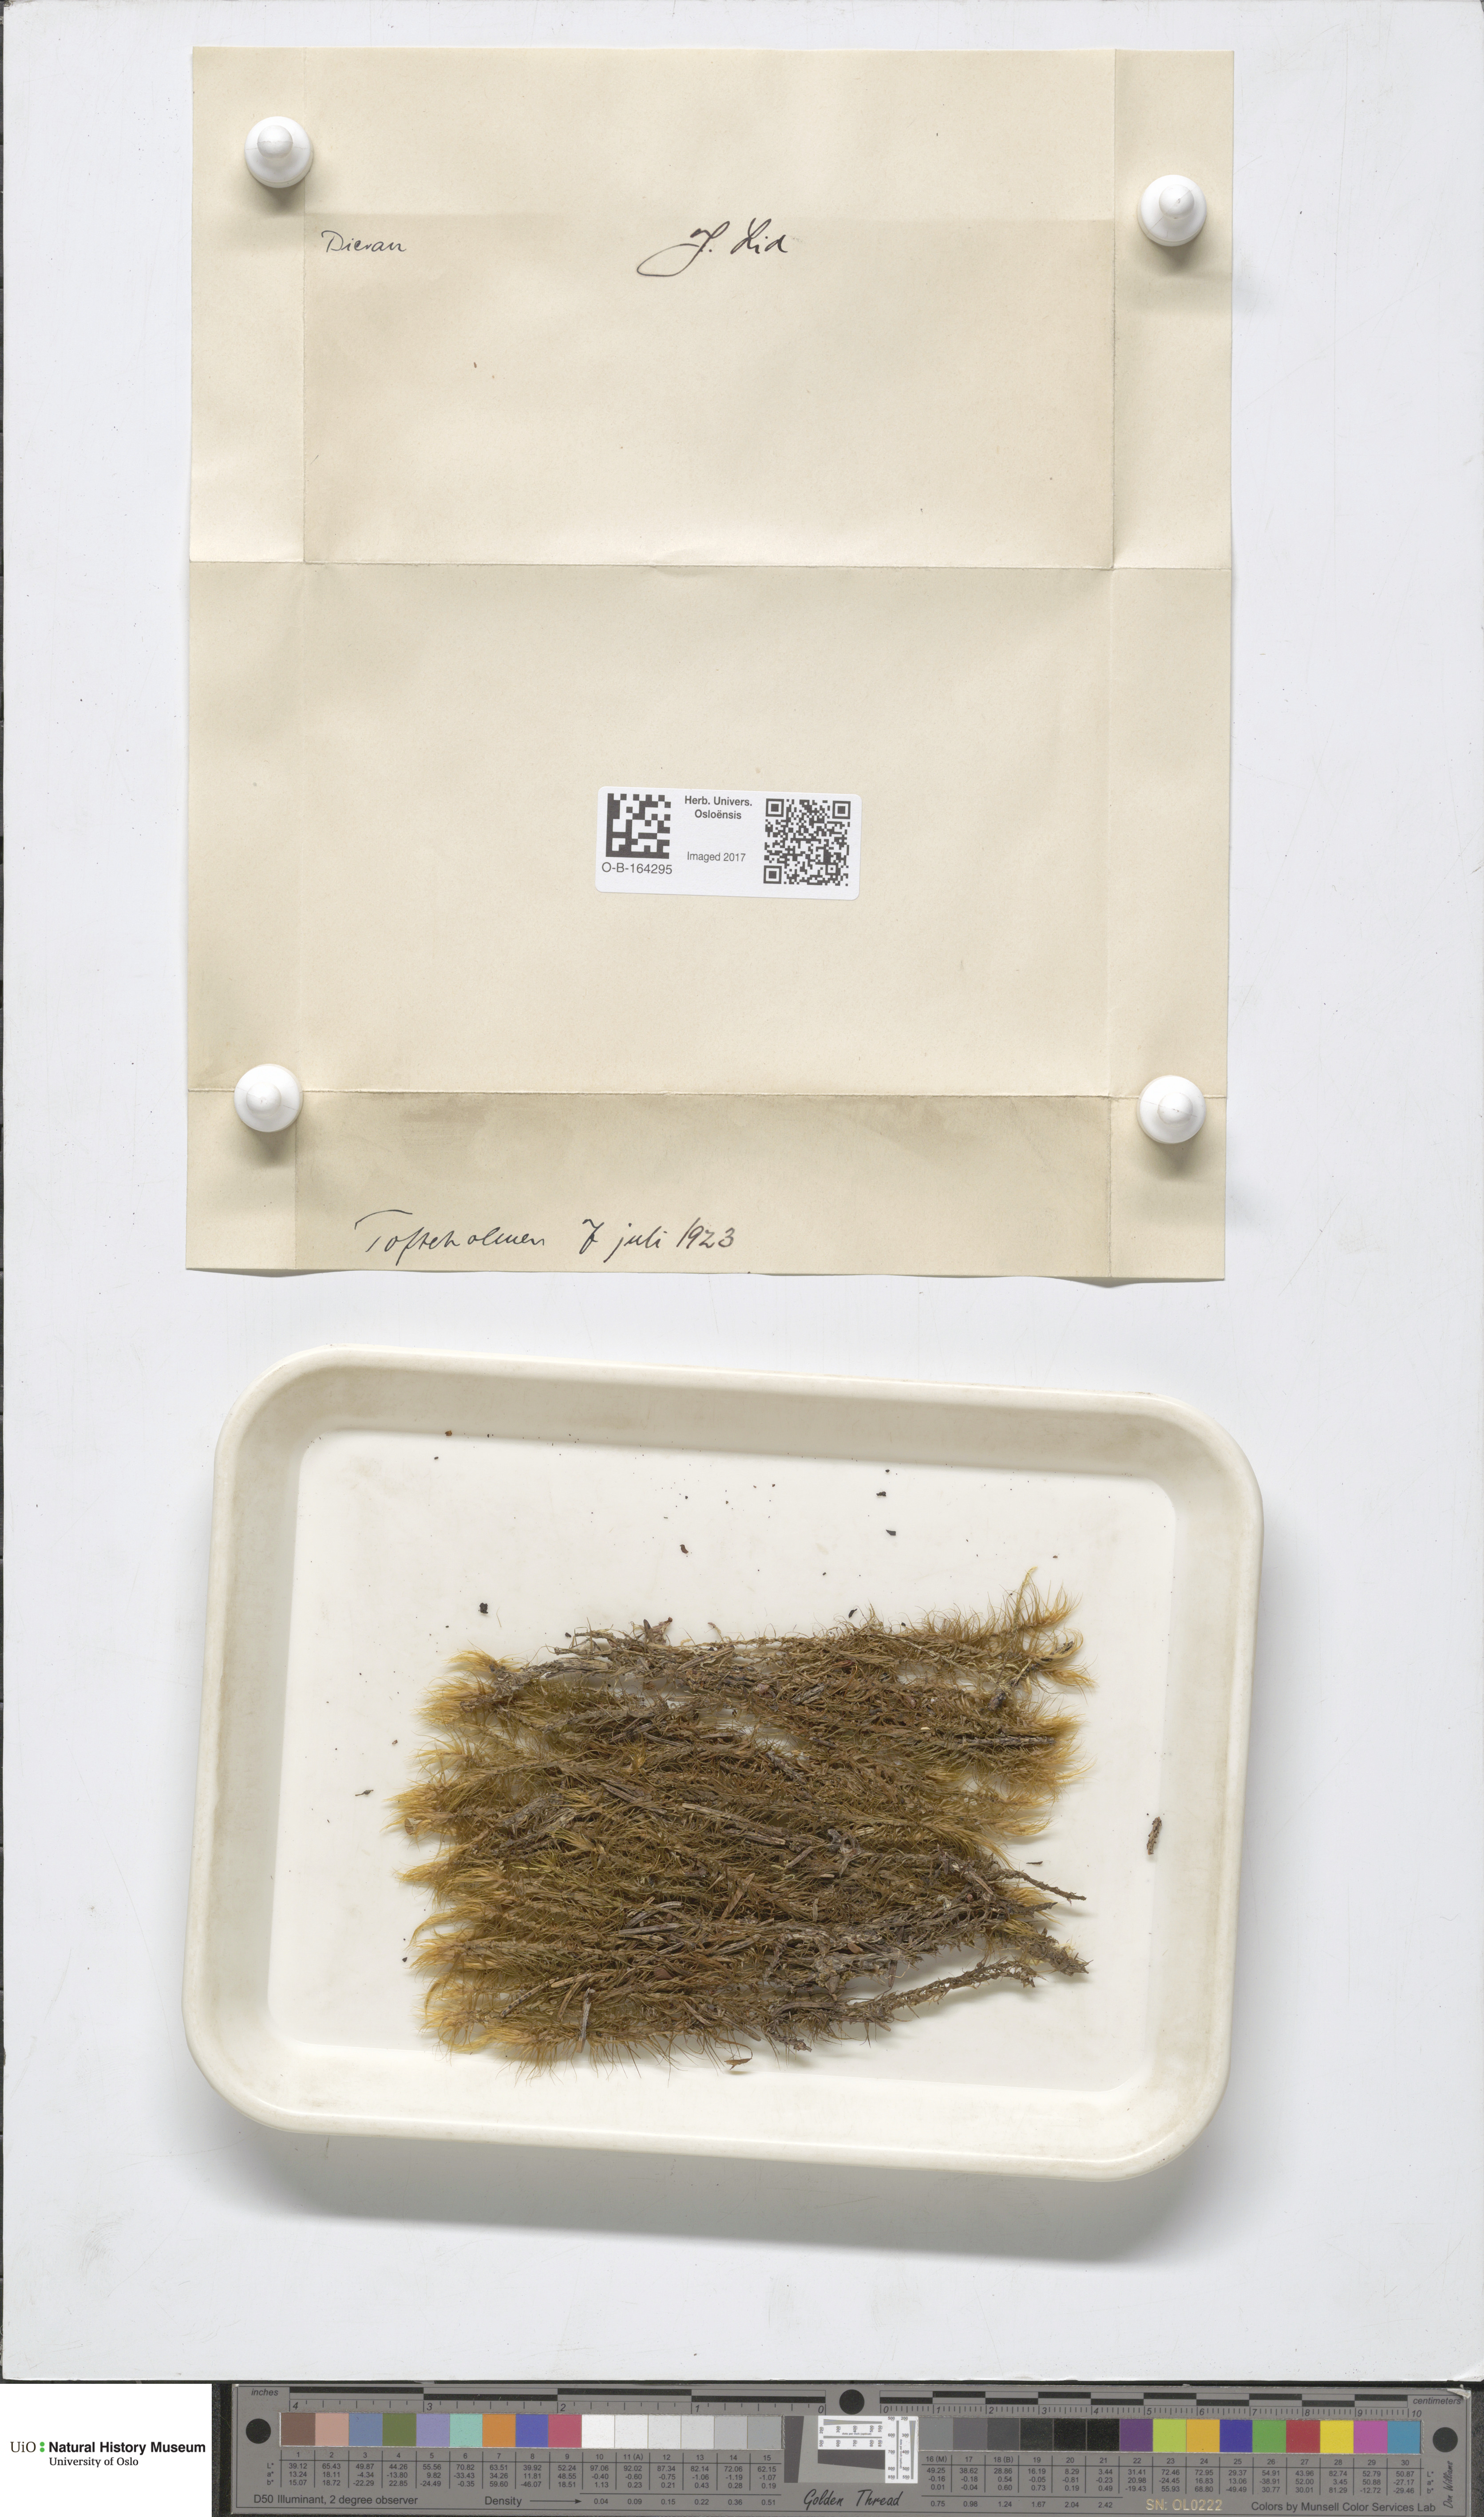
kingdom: Plantae
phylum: Bryophyta
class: Bryopsida
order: Dicranales
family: Dicranaceae
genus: Dicranum
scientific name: Dicranum
